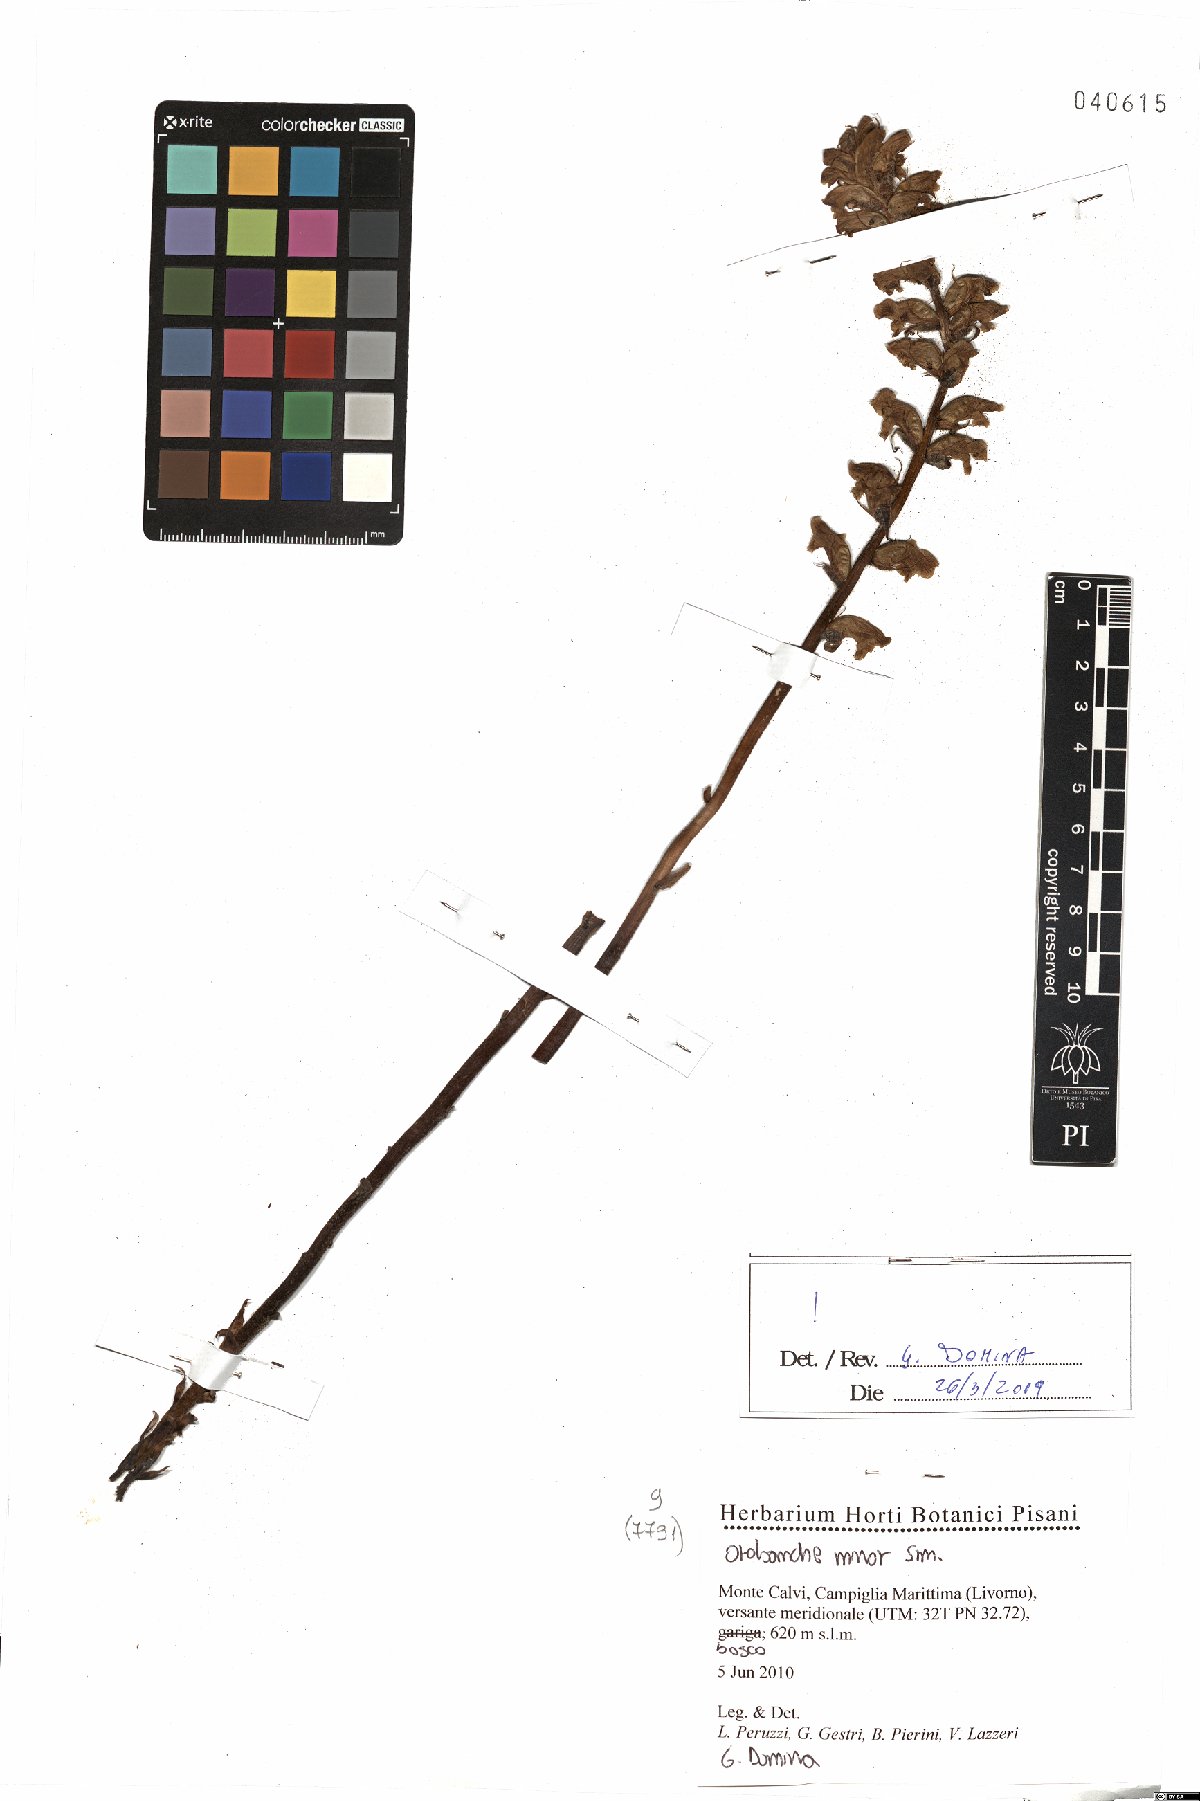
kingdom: Plantae
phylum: Tracheophyta
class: Magnoliopsida
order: Lamiales
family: Orobanchaceae
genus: Orobanche
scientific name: Orobanche minor
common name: Common broomrape
